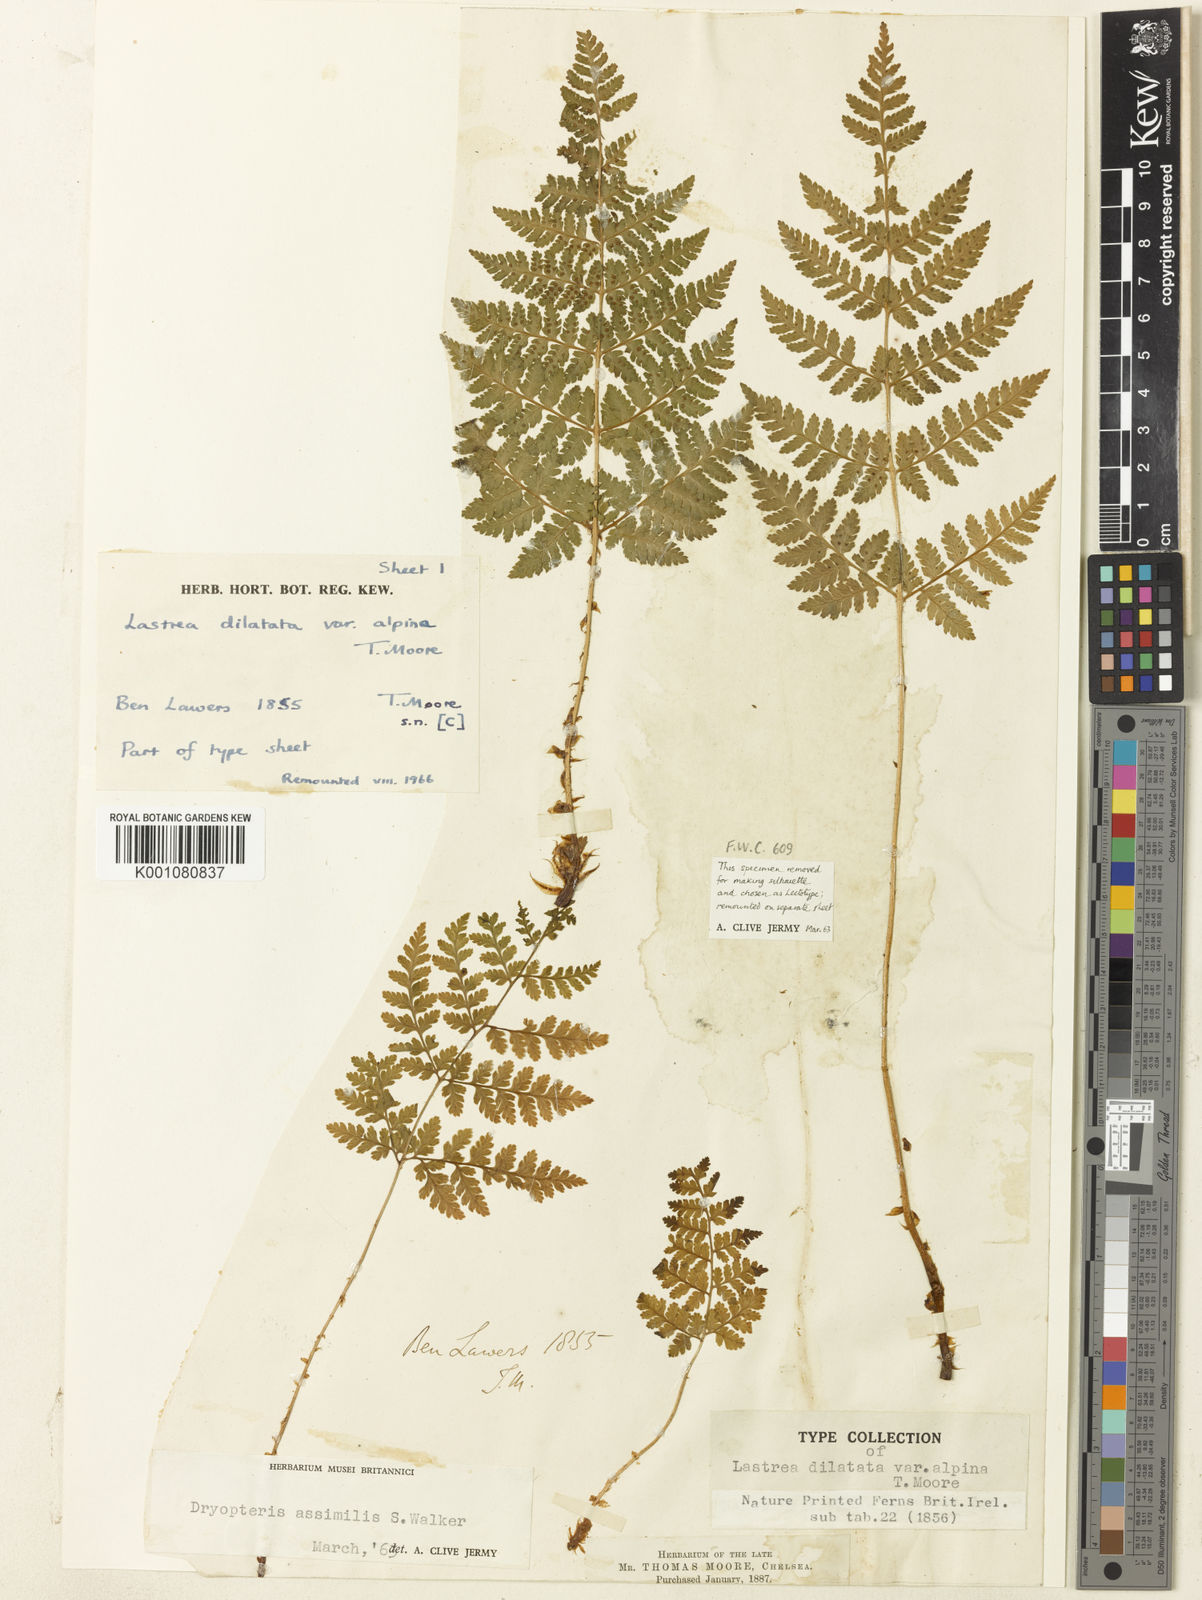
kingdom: Plantae
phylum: Tracheophyta
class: Polypodiopsida
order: Polypodiales
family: Dryopteridaceae
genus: Dryopteris
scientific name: Dryopteris expansa
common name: Northern buckler fern
